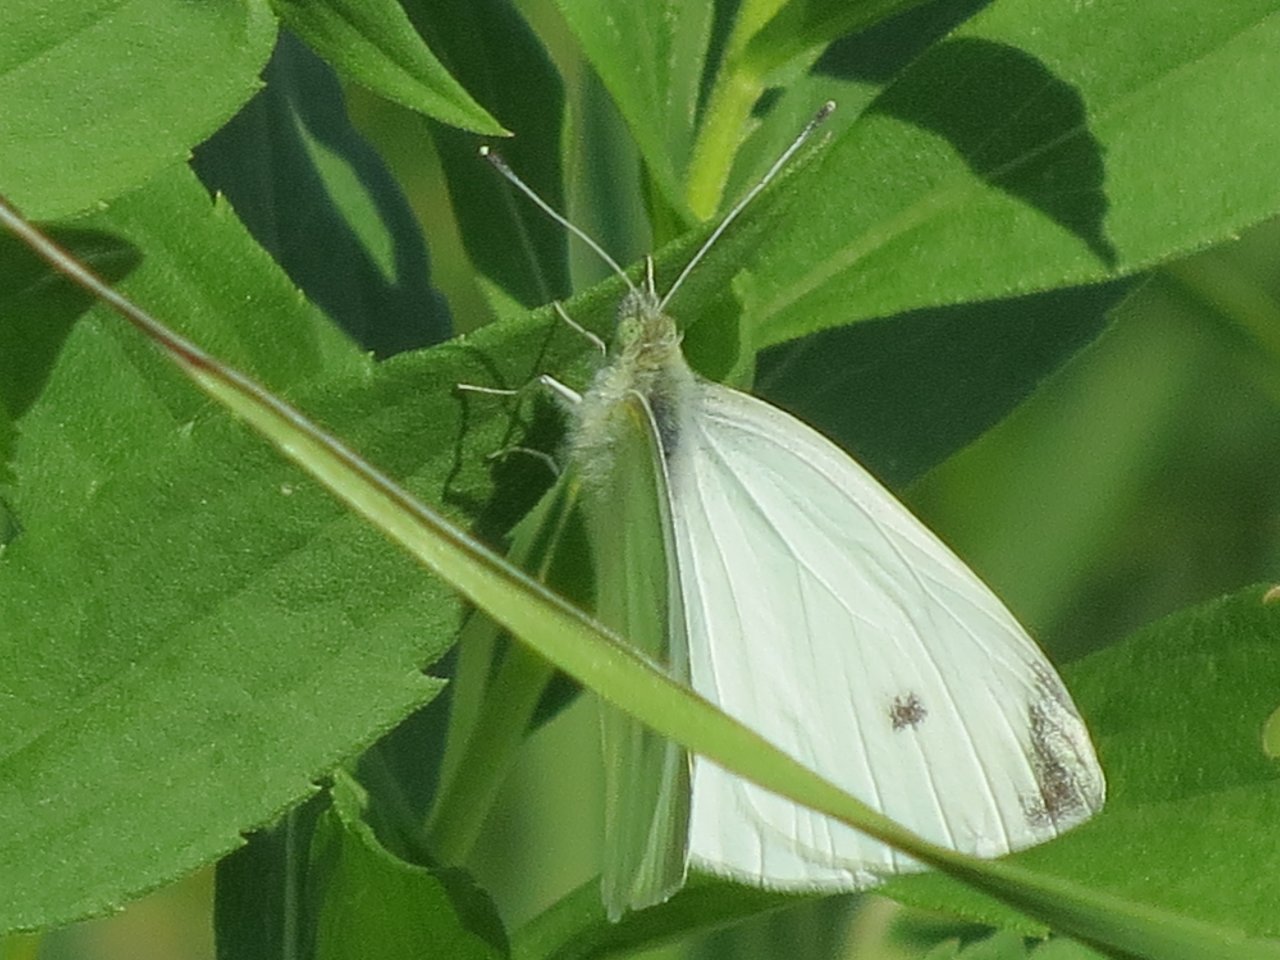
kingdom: Animalia
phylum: Arthropoda
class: Insecta
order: Lepidoptera
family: Pieridae
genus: Pieris
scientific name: Pieris rapae
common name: Cabbage White
